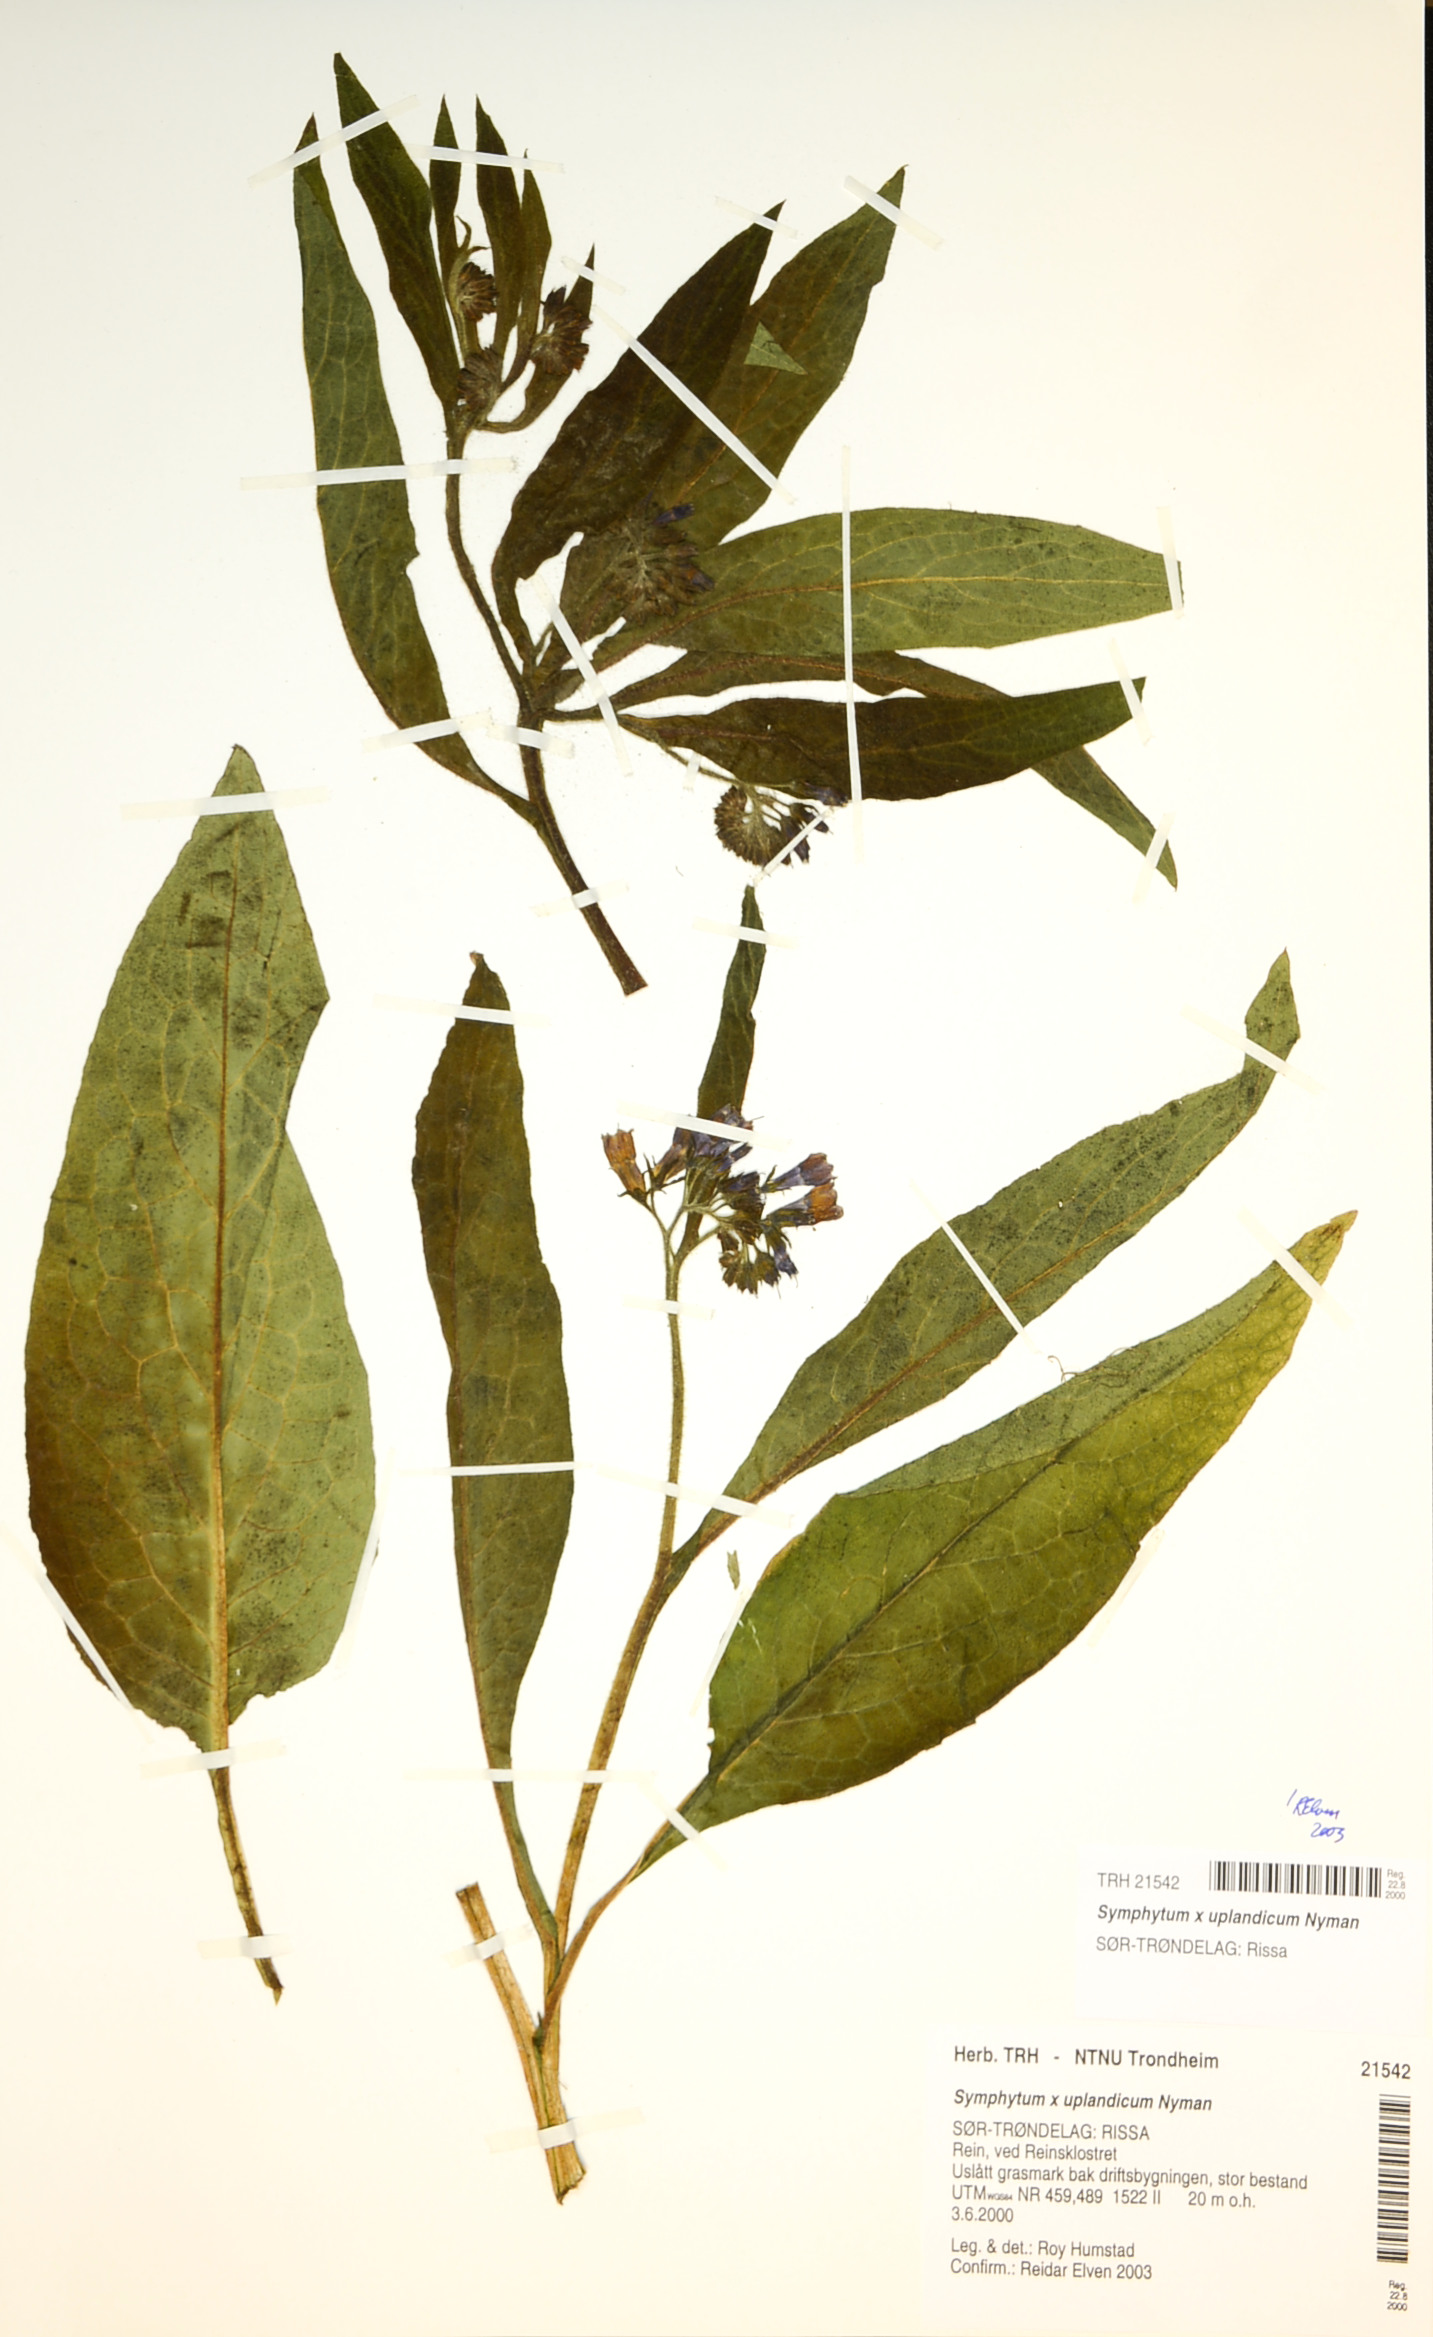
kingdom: Plantae
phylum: Tracheophyta
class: Magnoliopsida
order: Boraginales
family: Boraginaceae
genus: Symphytum
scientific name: Symphytum uplandicum
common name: Russian comfrey
